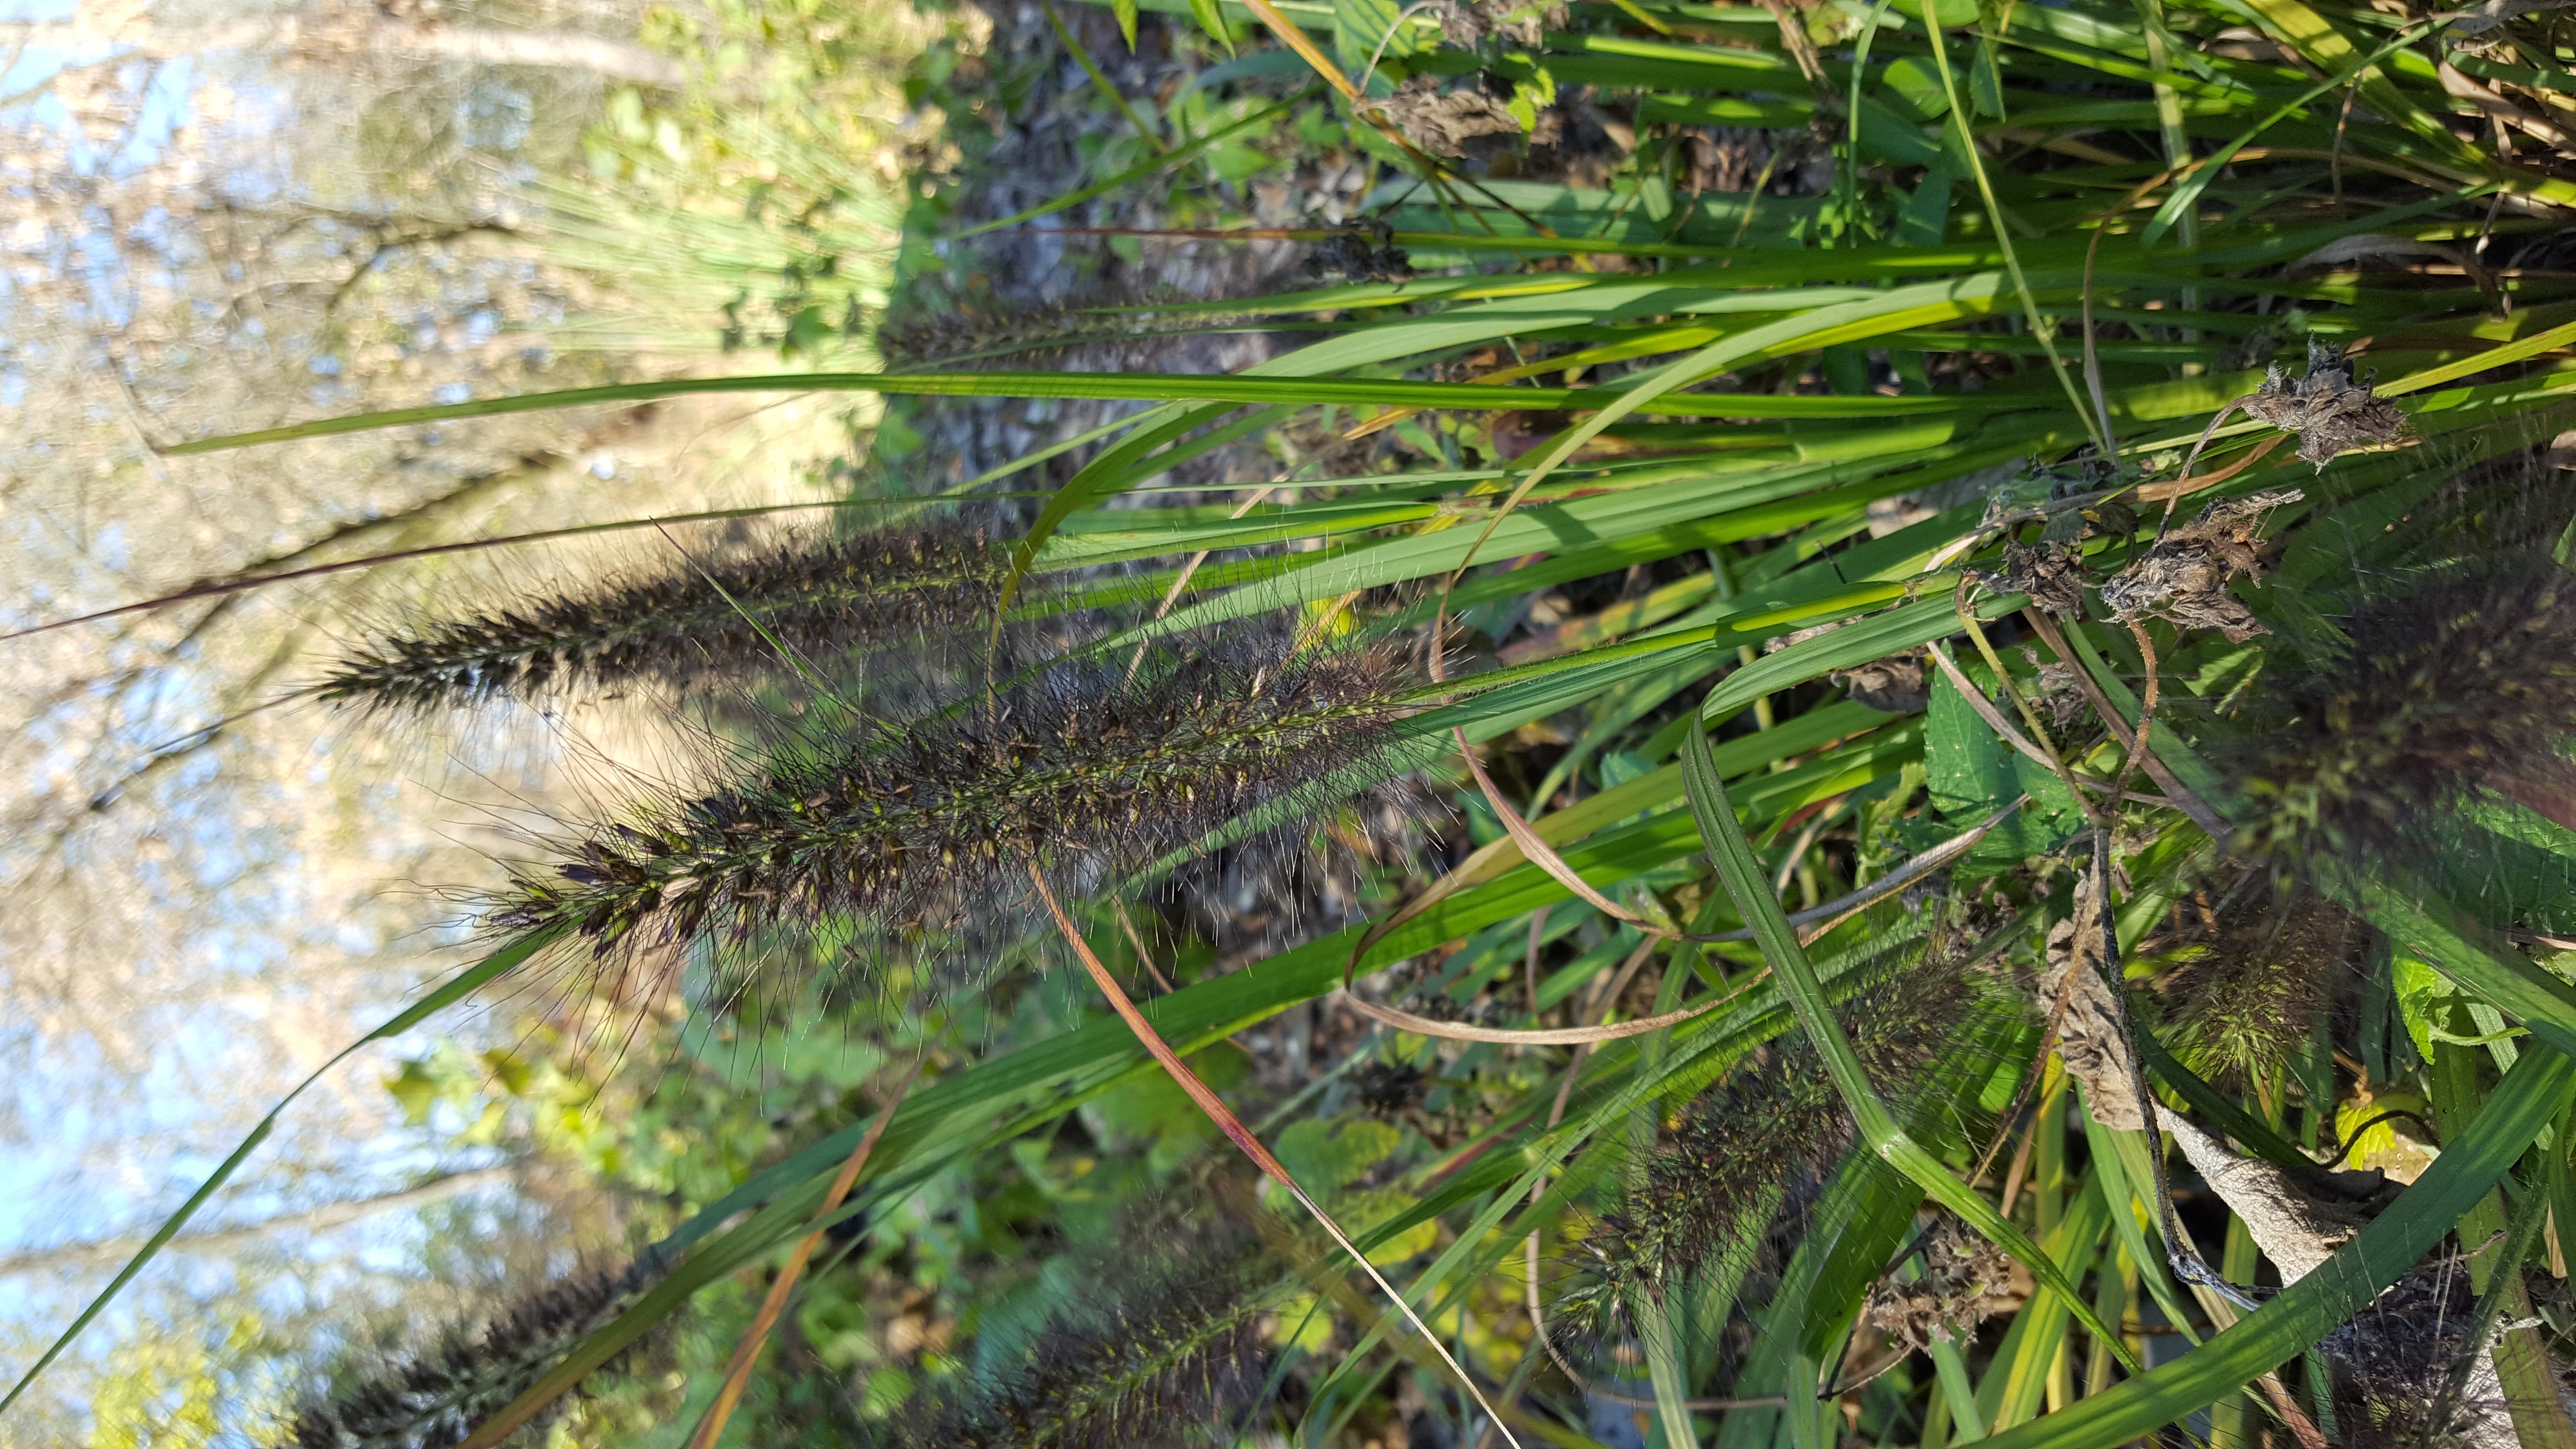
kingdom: Plantae
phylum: Tracheophyta
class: Liliopsida
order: Poales
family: Poaceae
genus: Cenchrus
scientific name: Cenchrus alopecuroides
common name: Fountaingrass
